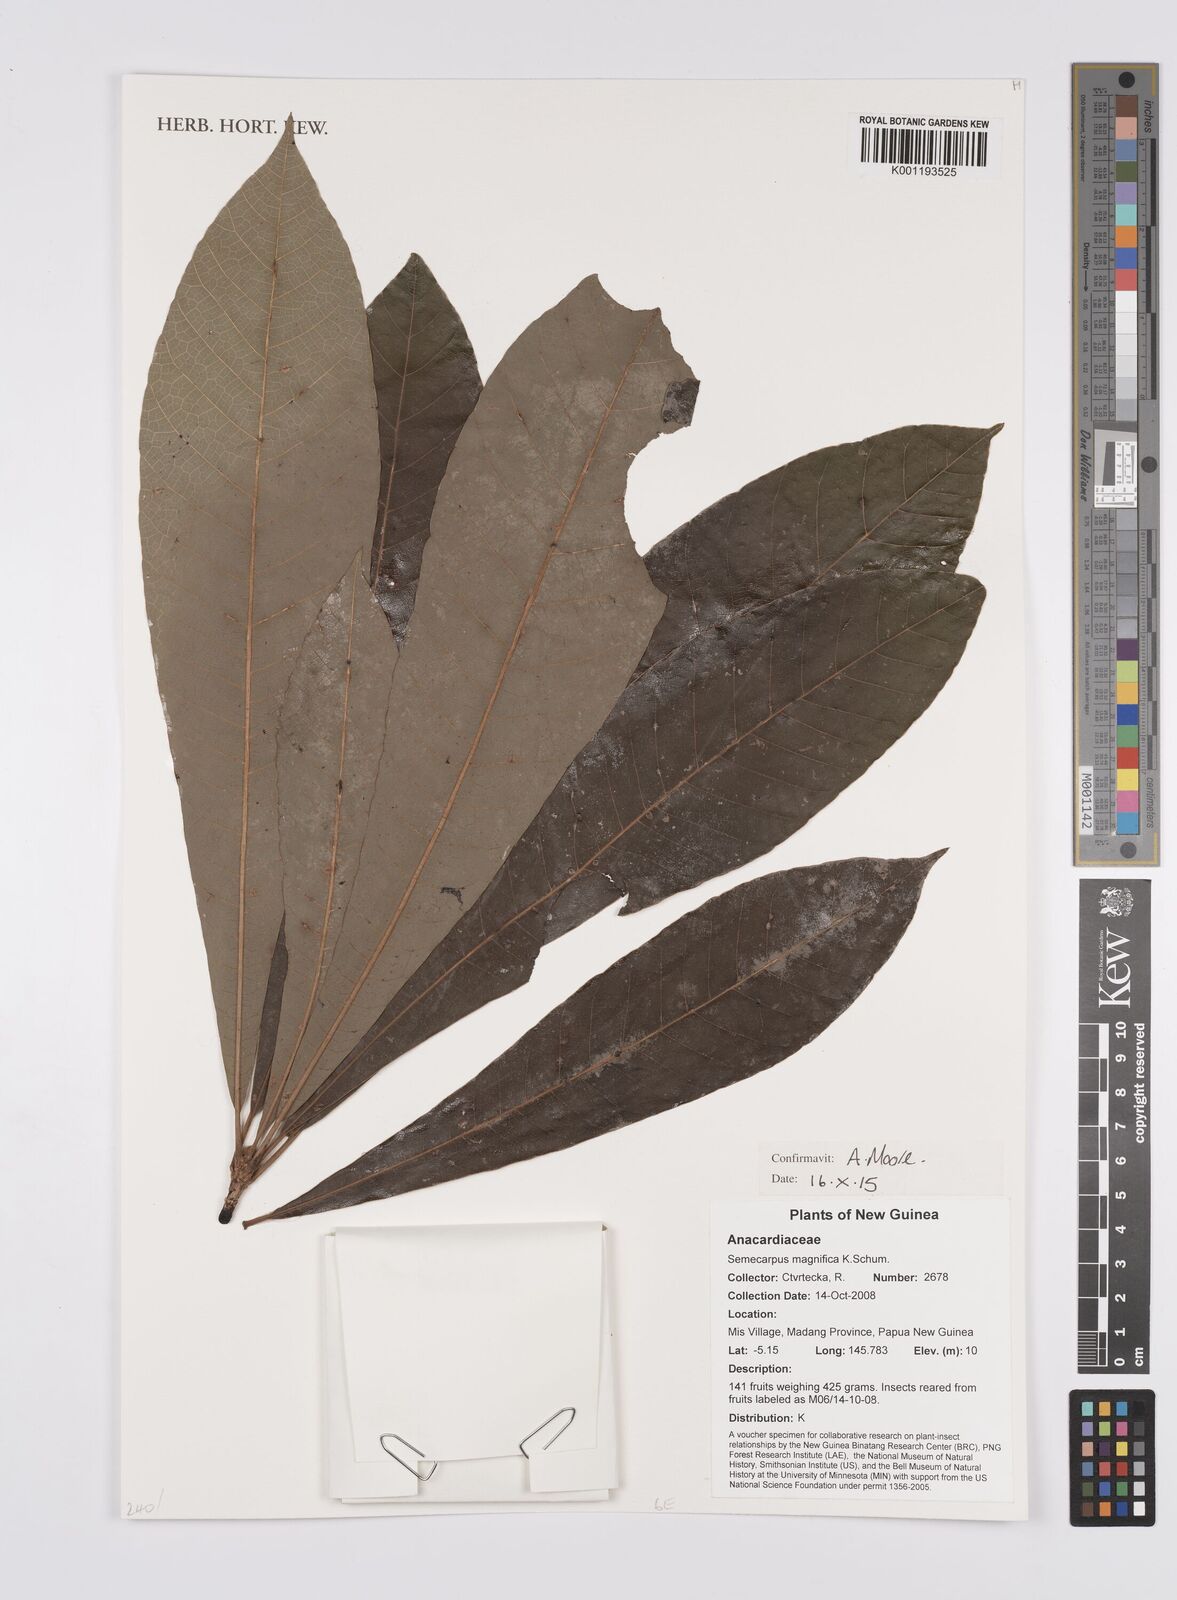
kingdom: Plantae
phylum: Tracheophyta
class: Magnoliopsida
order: Sapindales
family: Anacardiaceae
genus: Semecarpus
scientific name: Semecarpus magnificus
